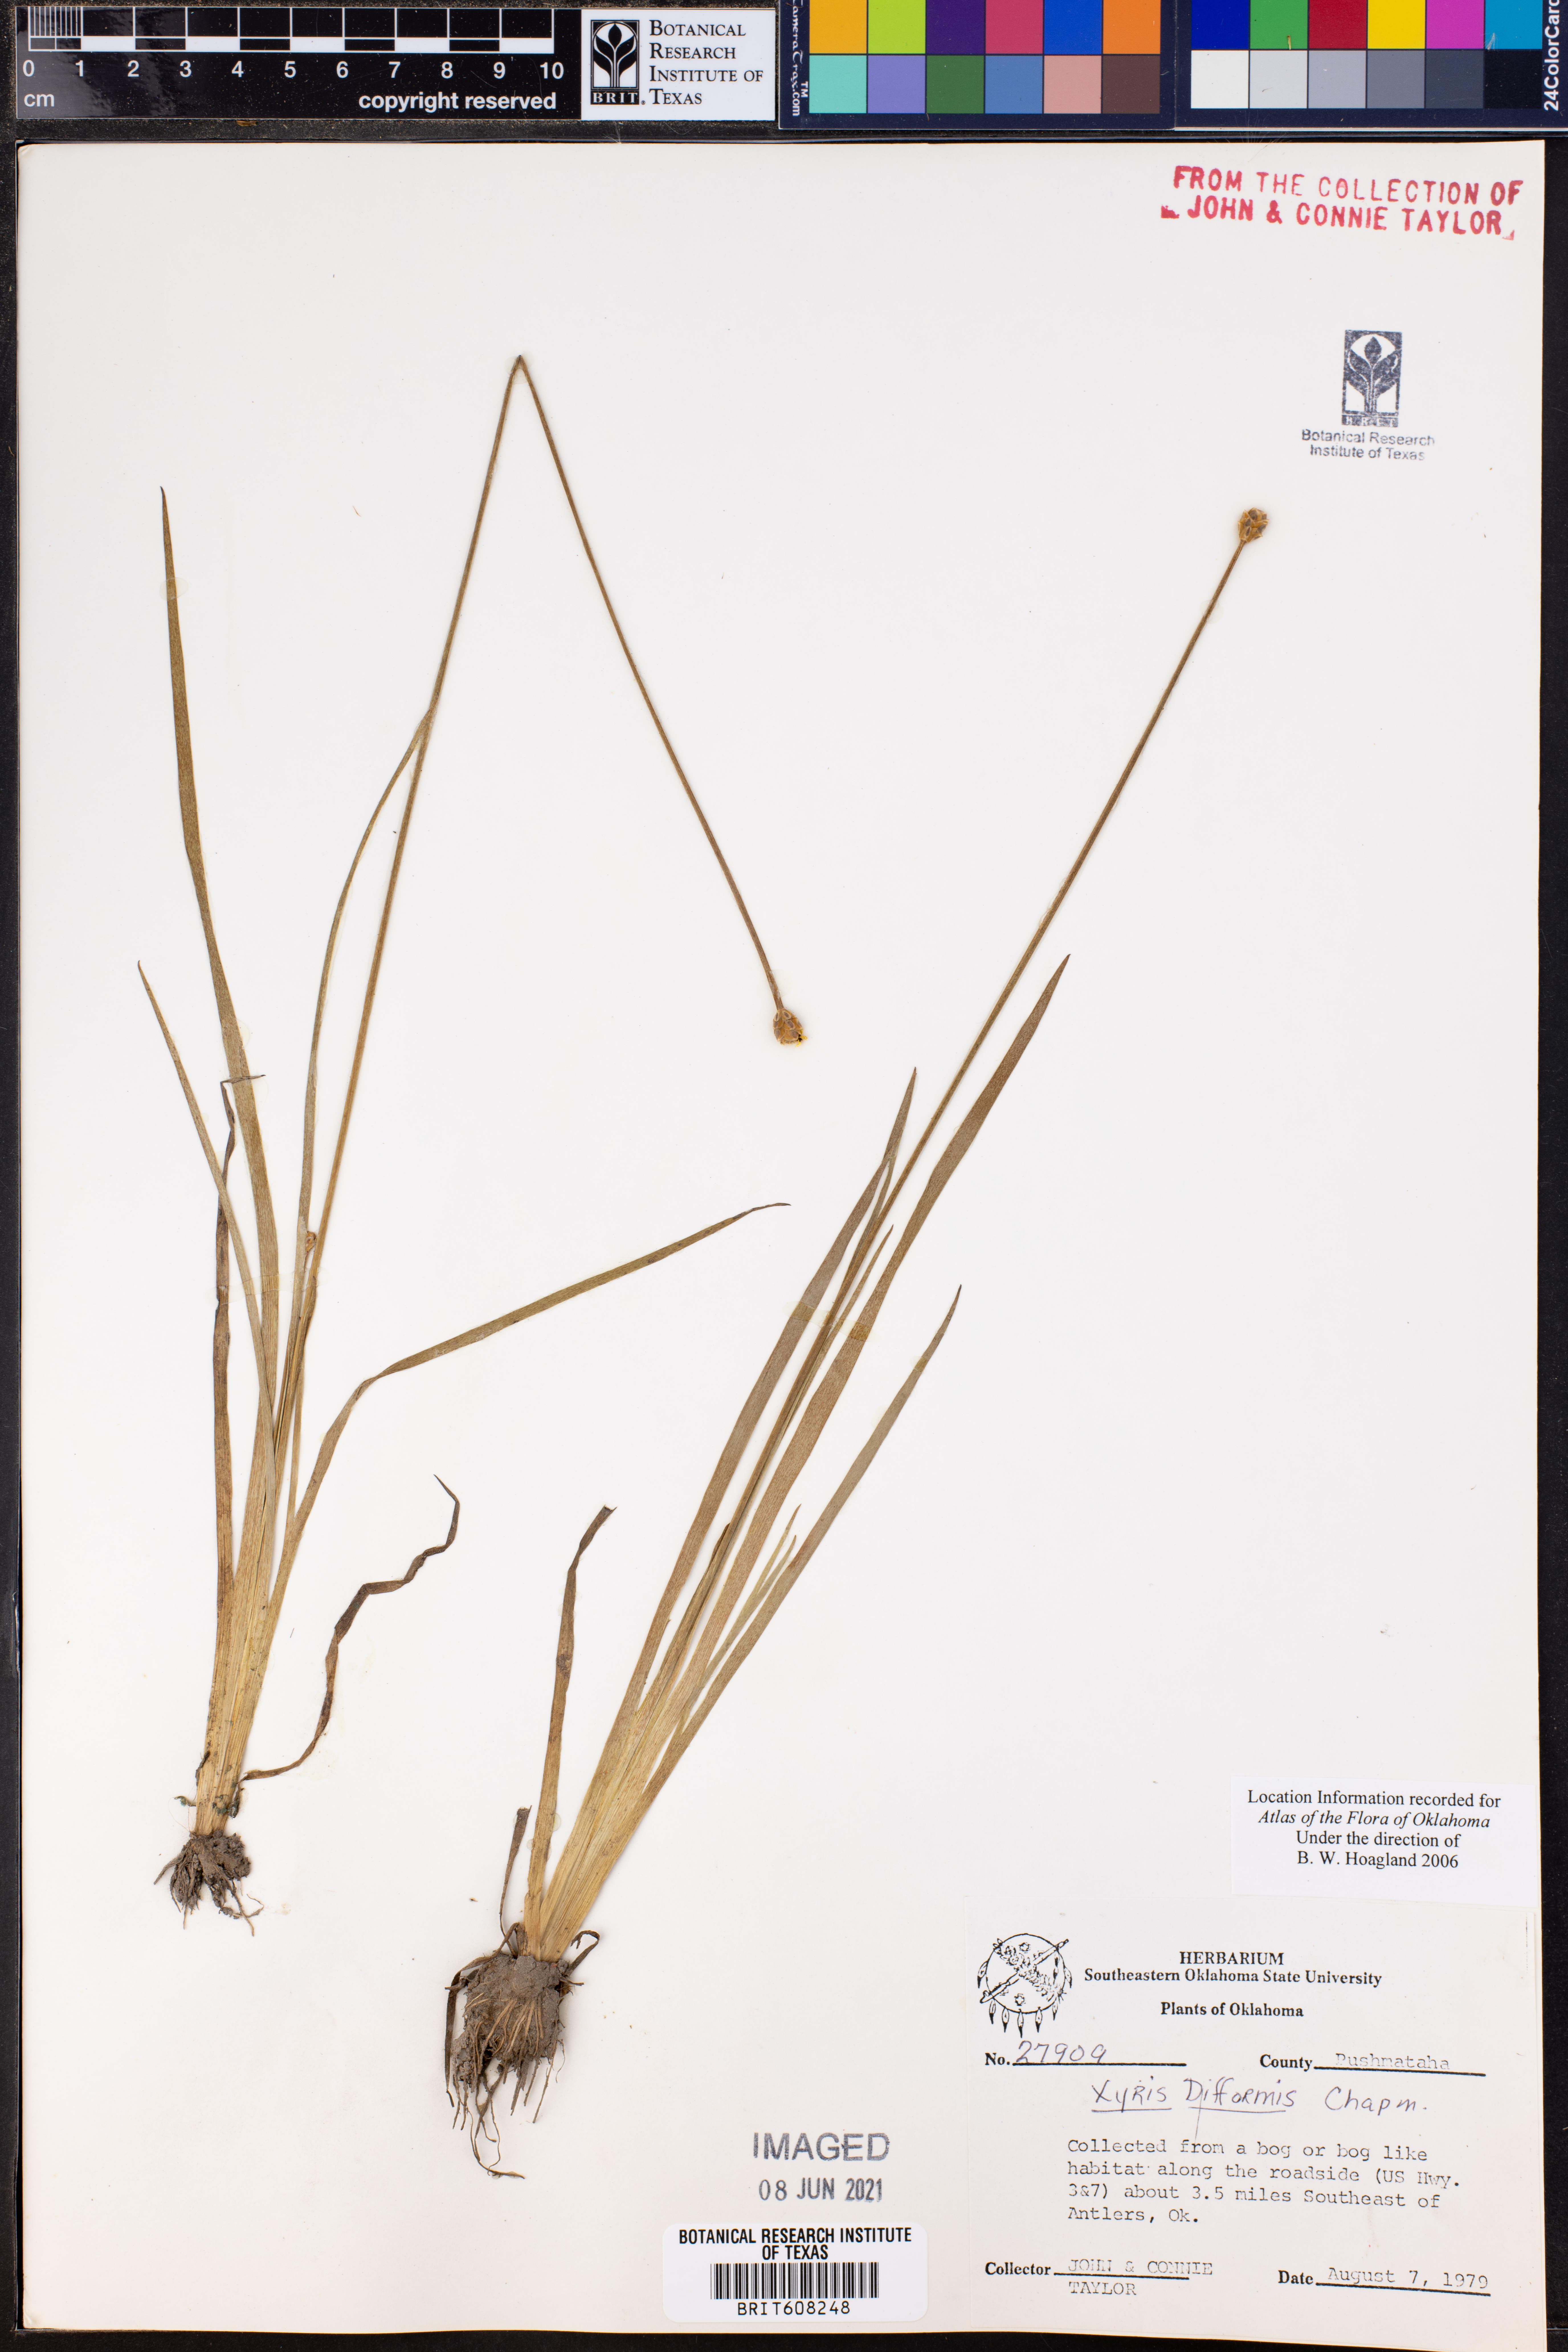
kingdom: Plantae
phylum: Tracheophyta
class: Liliopsida
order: Poales
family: Xyridaceae
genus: Xyris
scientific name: Xyris difformis
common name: Bog yellow-eyed-grass
